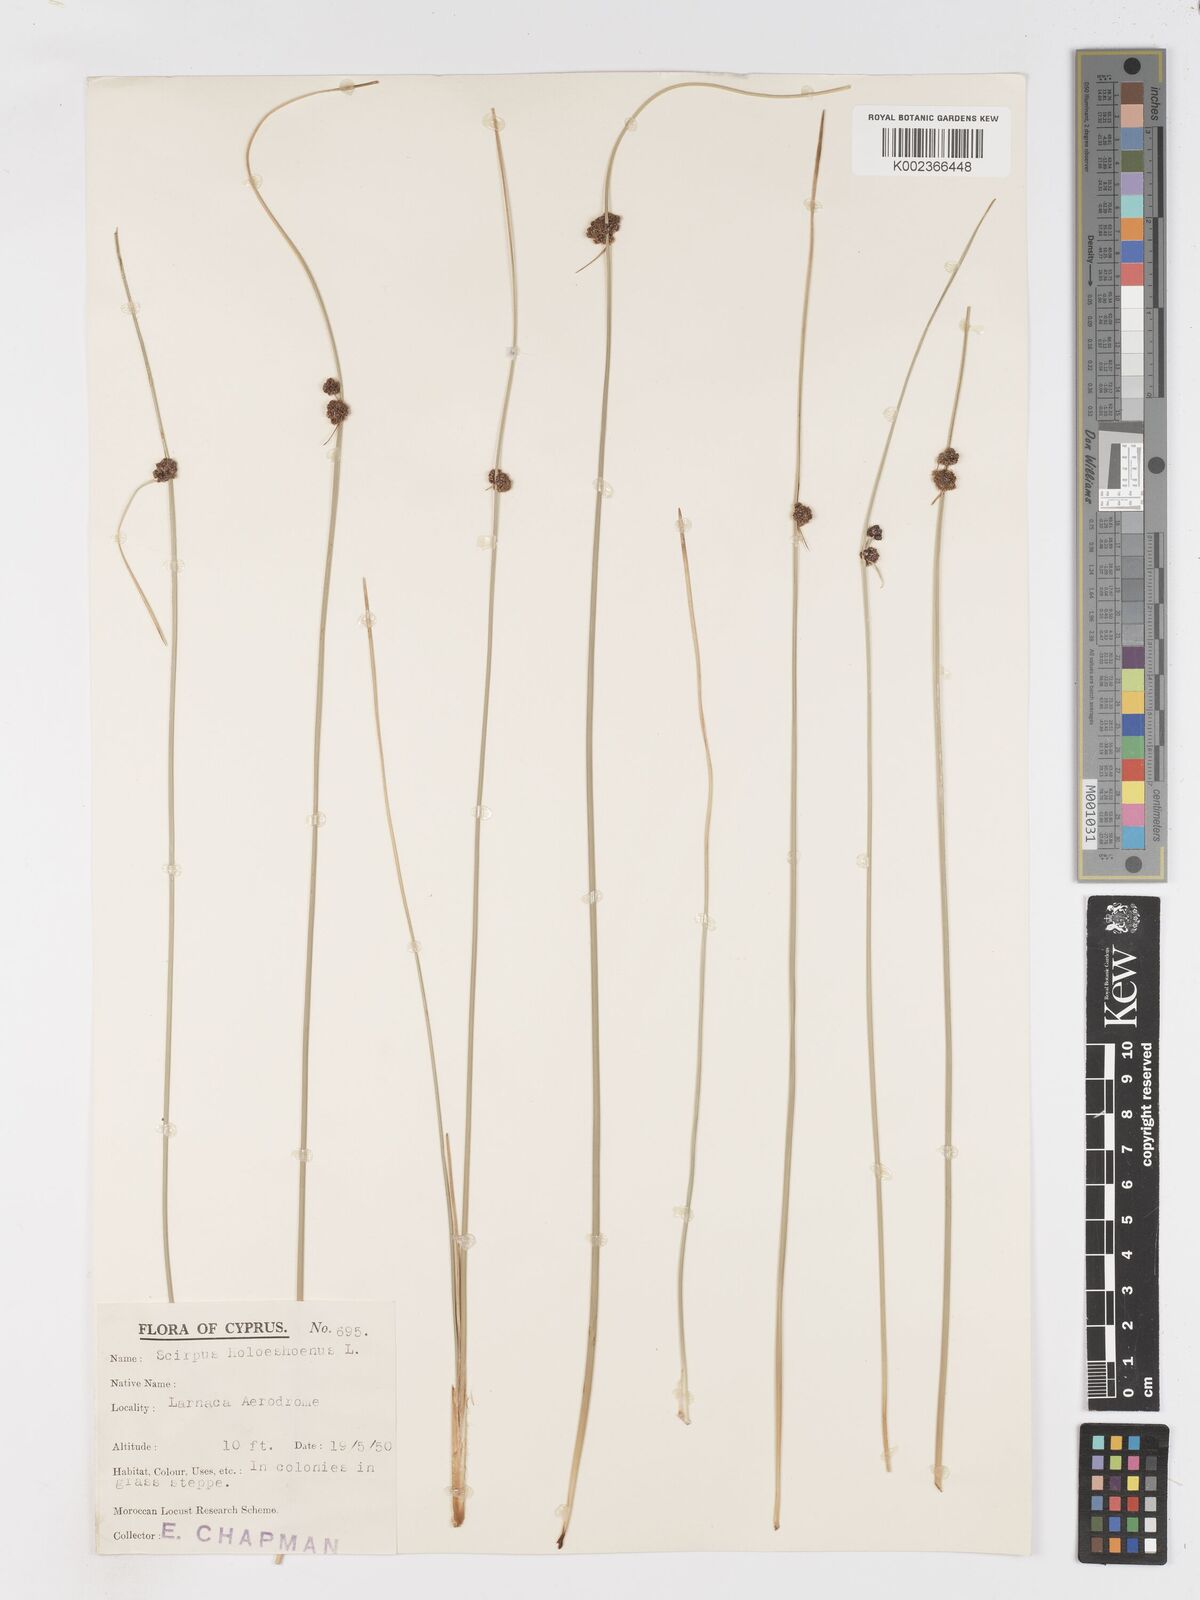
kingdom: Plantae
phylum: Tracheophyta
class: Liliopsida
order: Poales
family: Cyperaceae
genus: Scirpoides
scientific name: Scirpoides holoschoenus
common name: Round-headed club-rush
